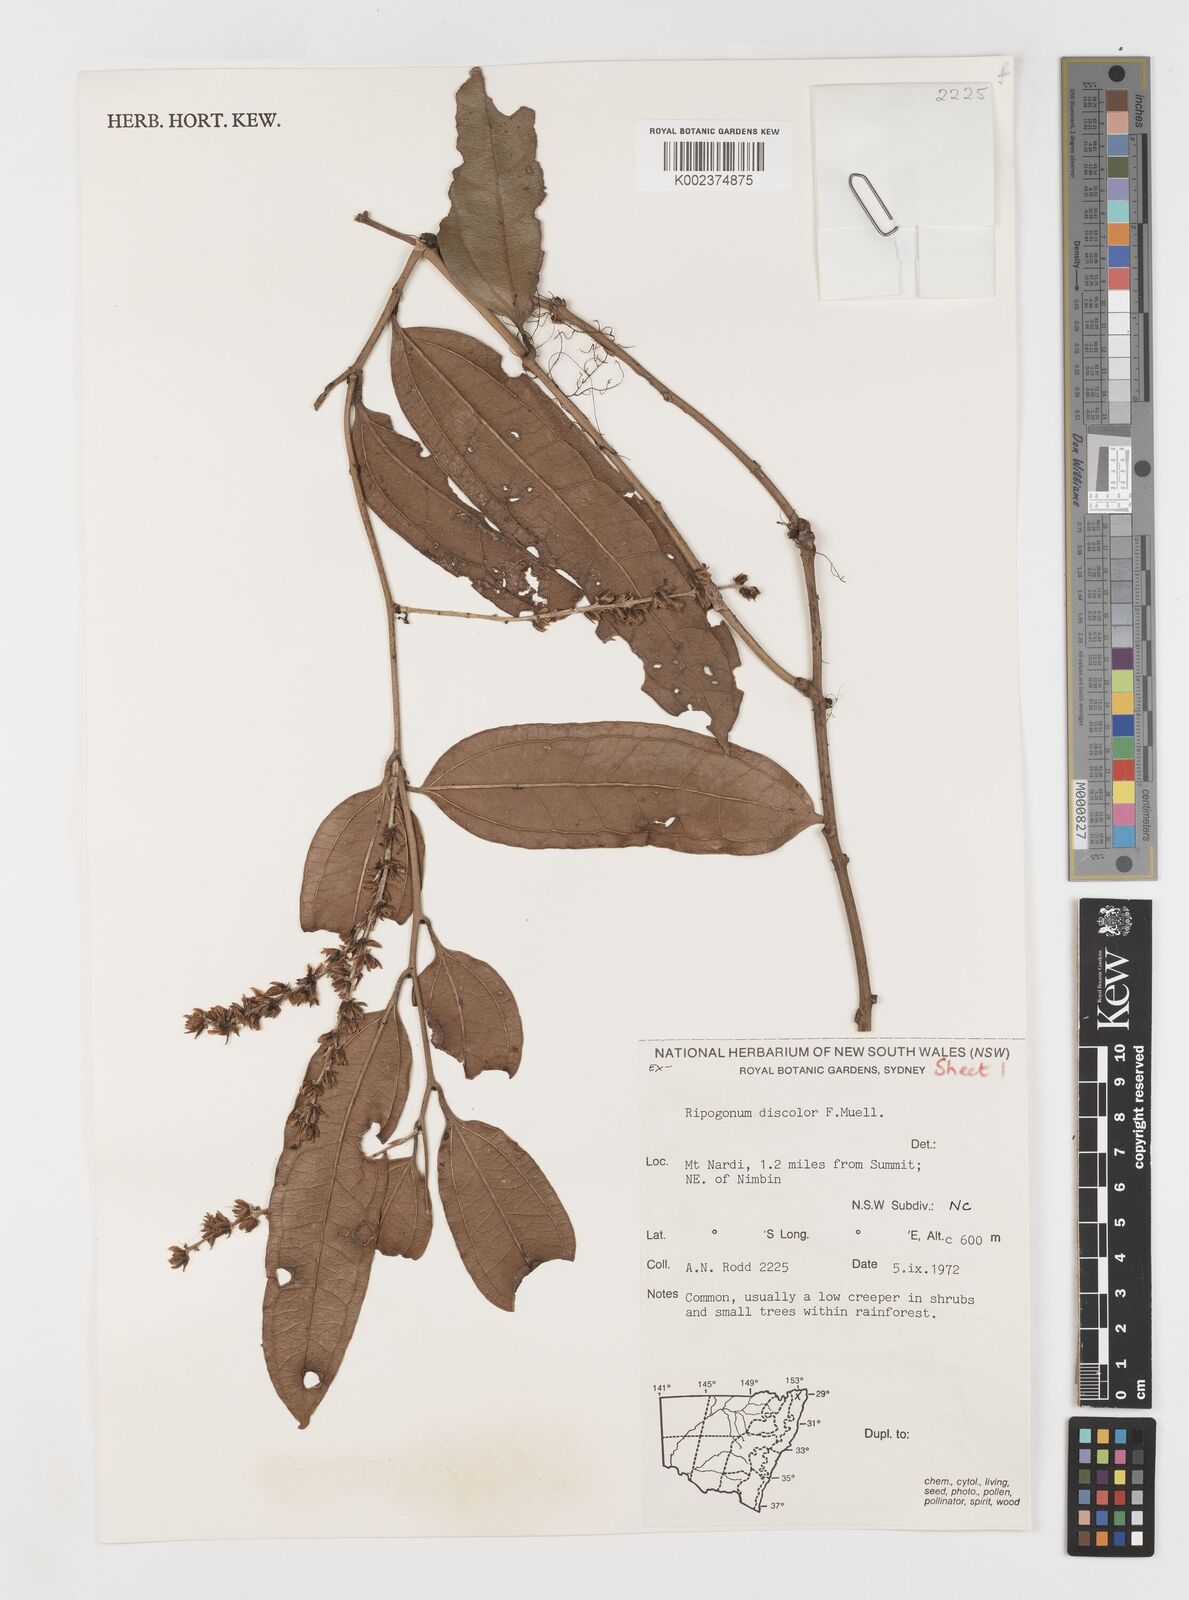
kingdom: Plantae
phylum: Tracheophyta
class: Liliopsida
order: Liliales
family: Ripogonaceae
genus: Ripogonum
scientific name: Ripogonum discolor
